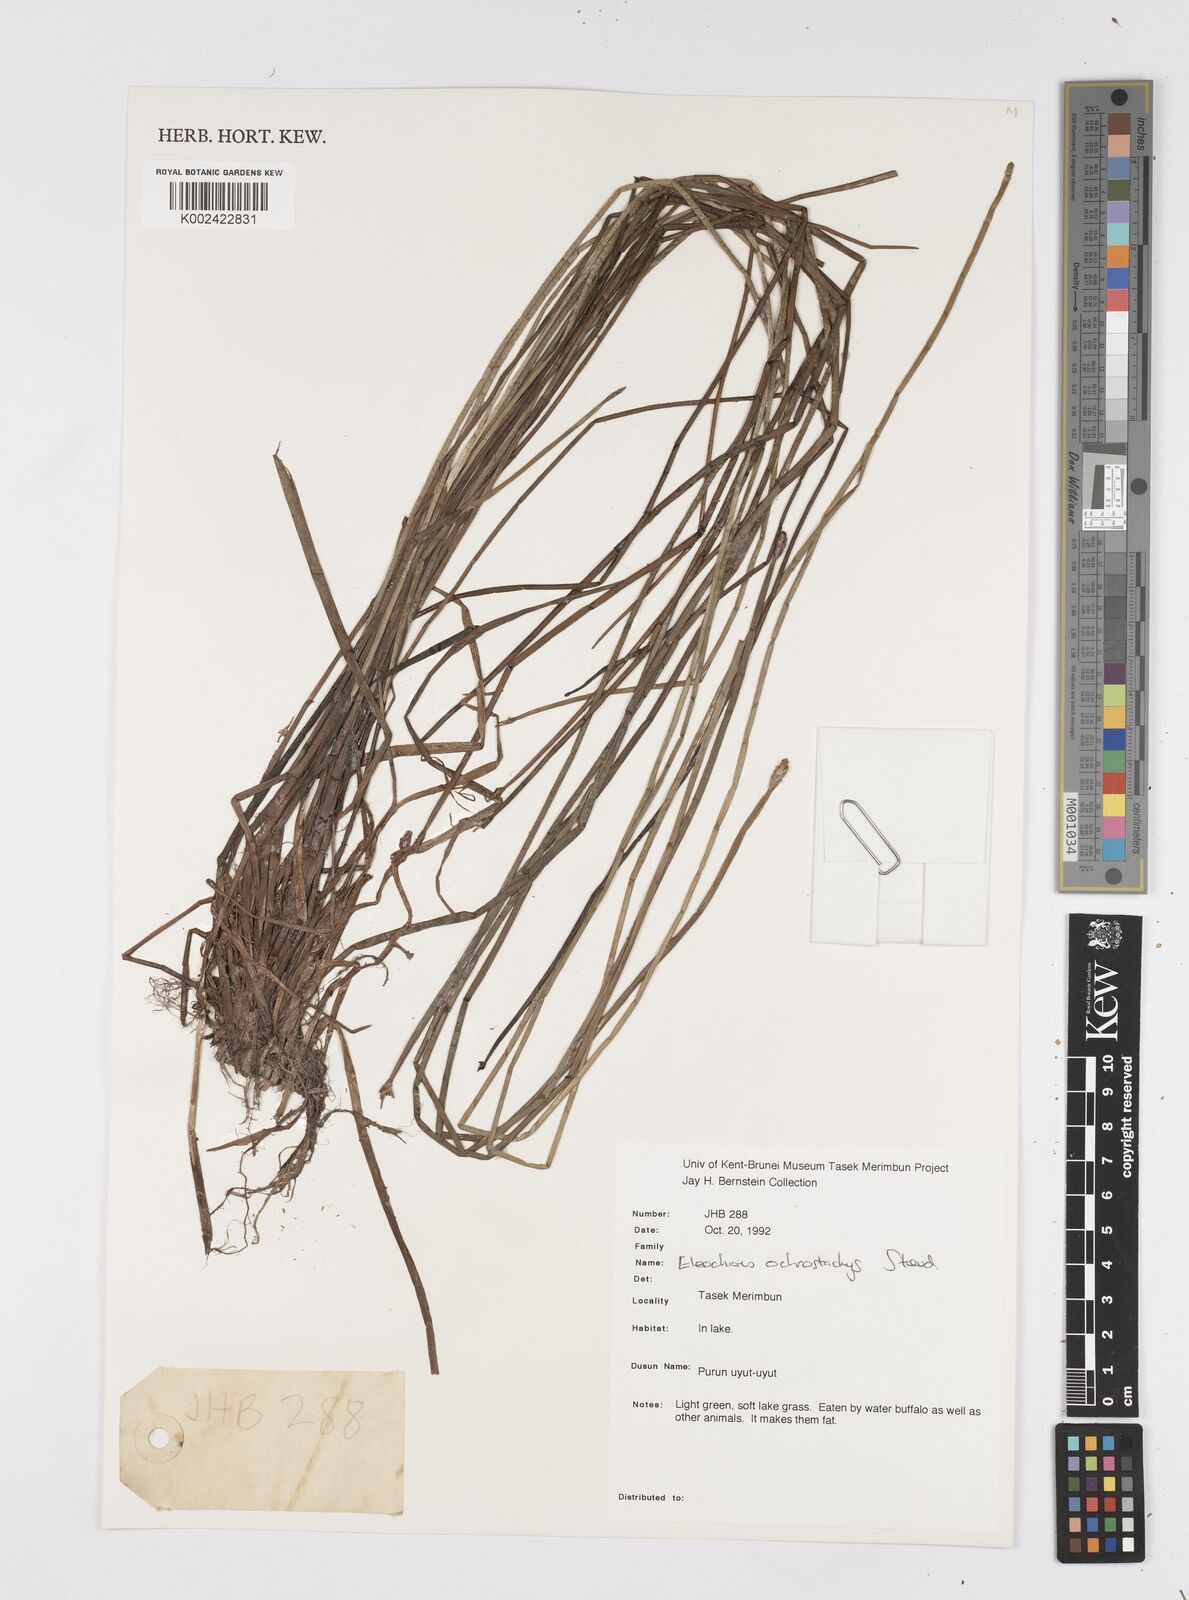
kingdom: Plantae
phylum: Tracheophyta
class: Liliopsida
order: Poales
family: Cyperaceae
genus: Eleocharis
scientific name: Eleocharis ochrostachys
